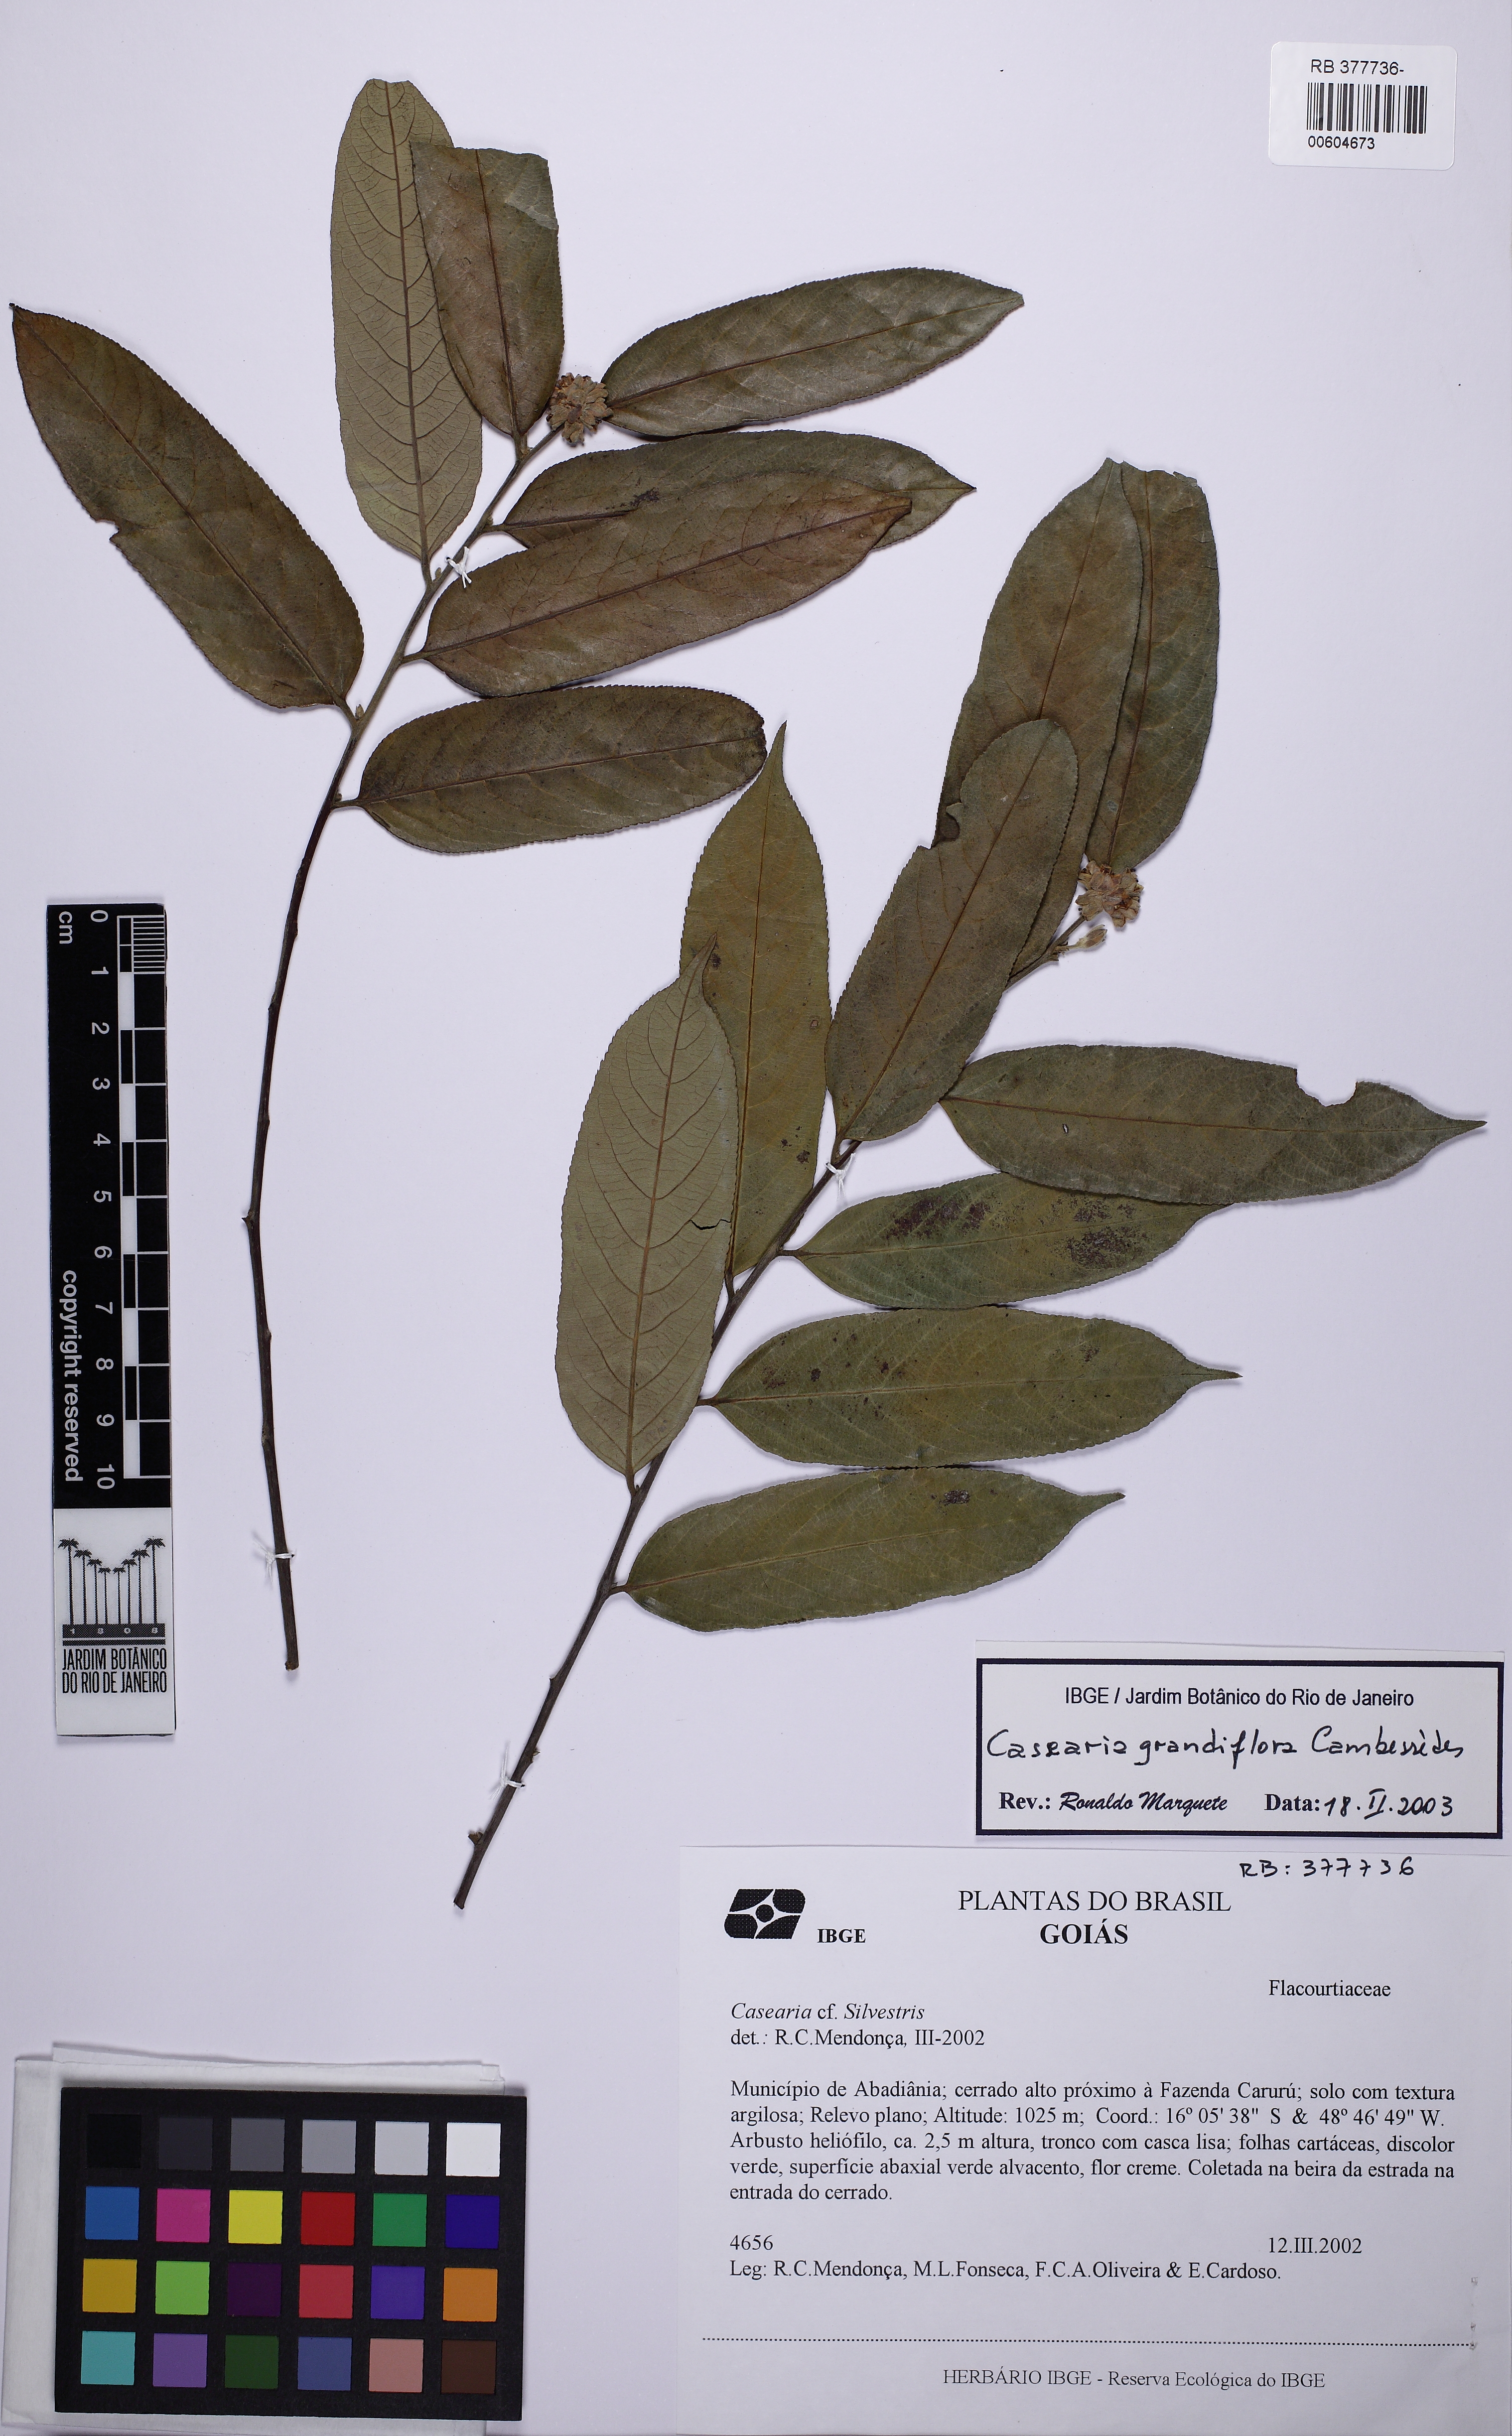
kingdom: Plantae
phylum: Tracheophyta
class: Magnoliopsida
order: Malpighiales
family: Salicaceae
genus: Casearia
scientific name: Casearia grandiflora
